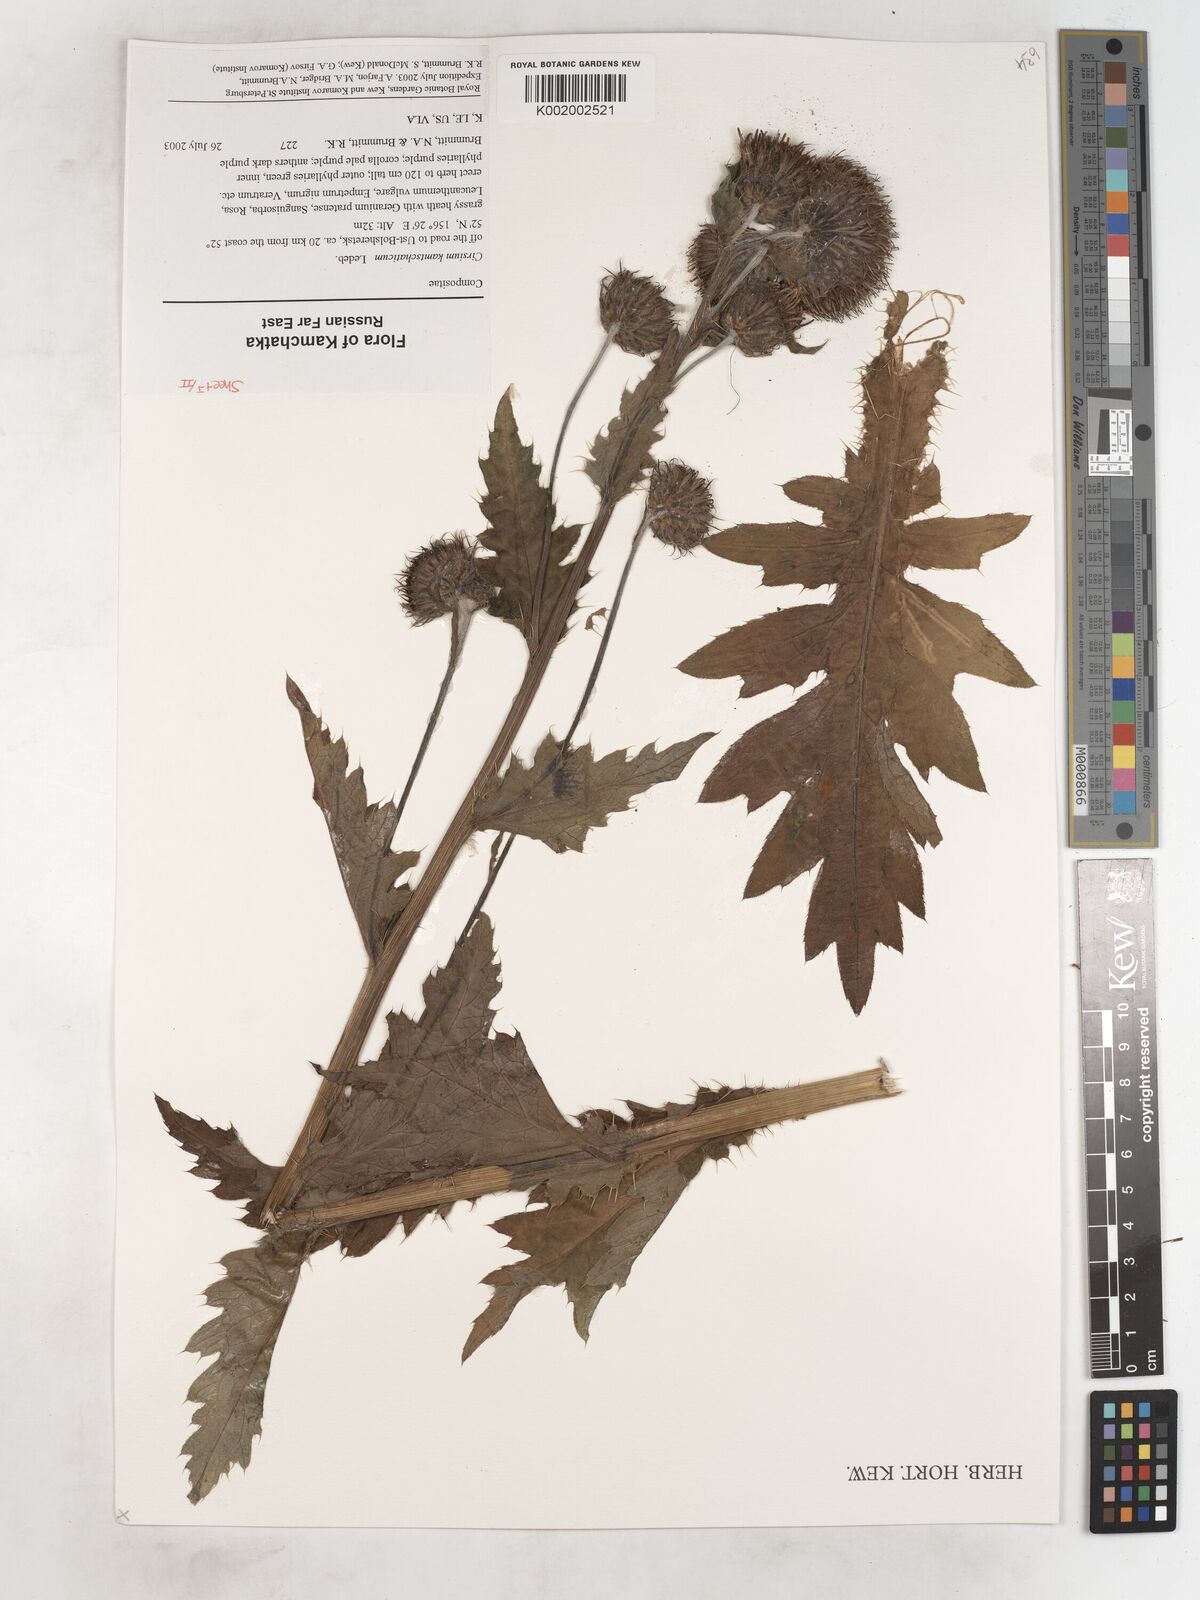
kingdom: Plantae
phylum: Tracheophyta
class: Magnoliopsida
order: Asterales
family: Asteraceae
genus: Cirsium
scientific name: Cirsium kamtschaticum
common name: Kamchatka thistle
